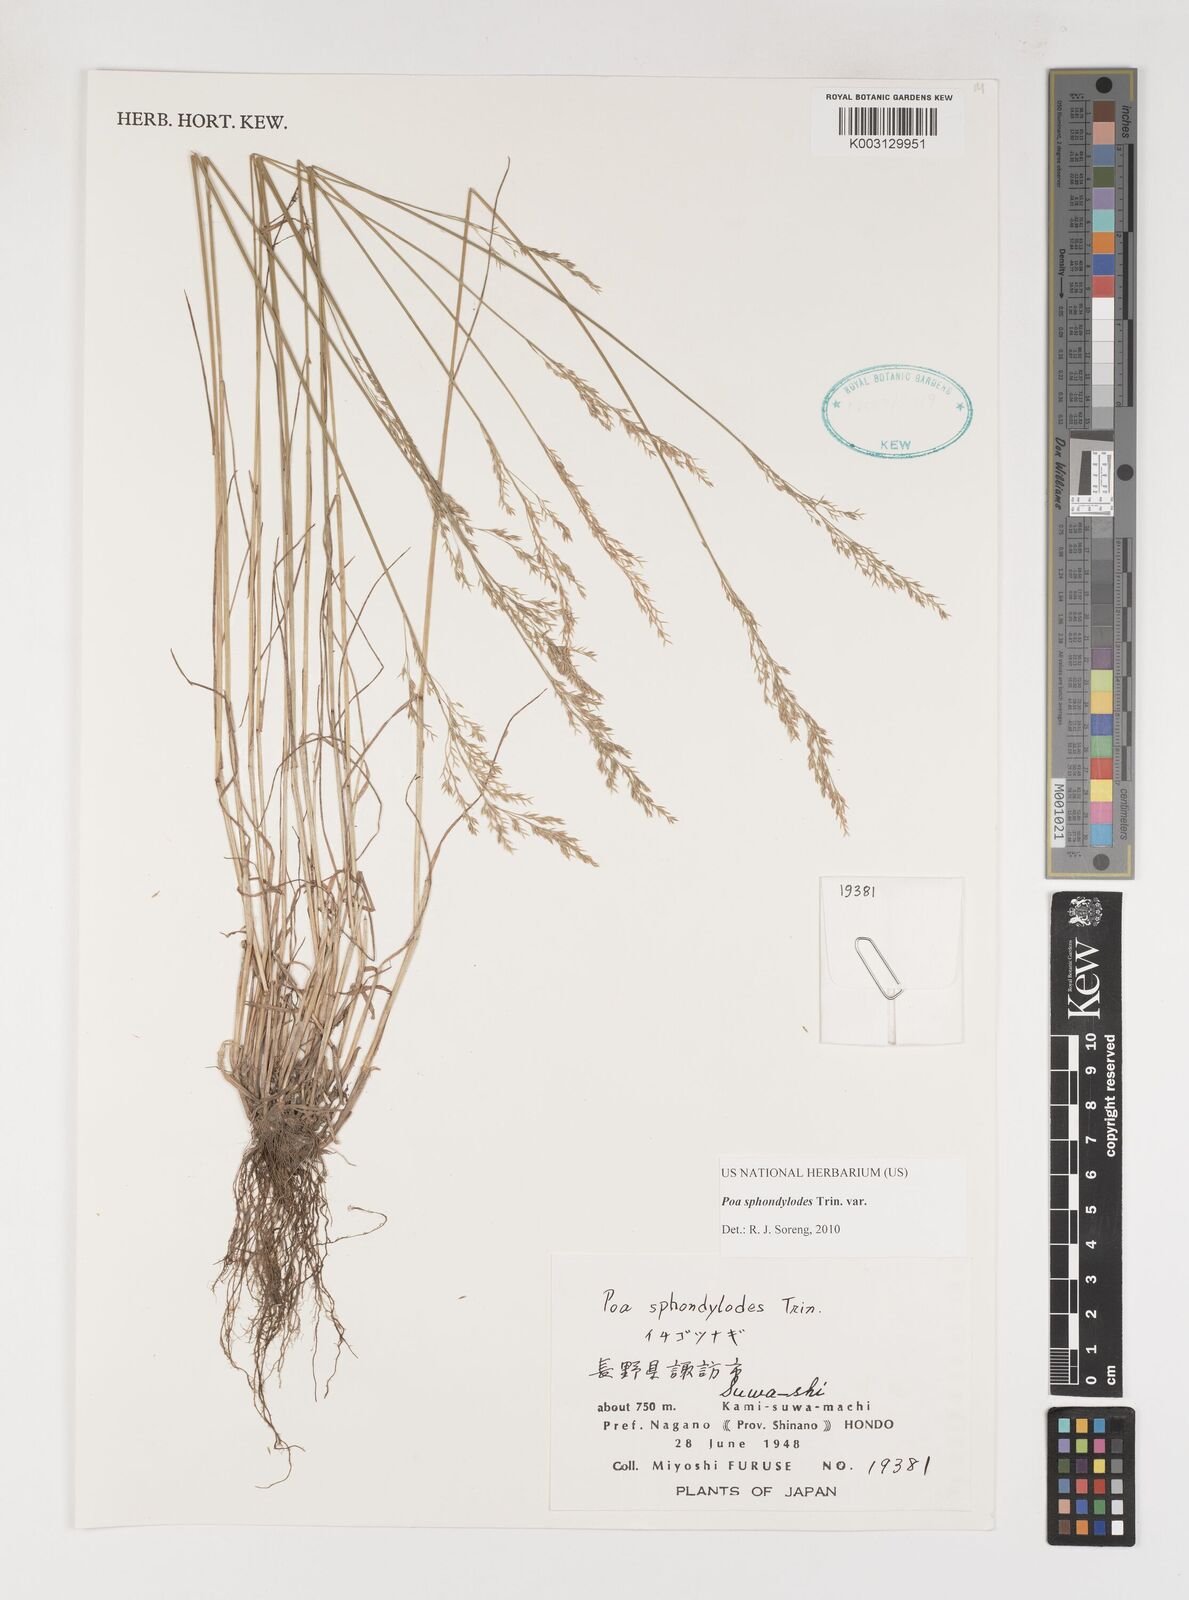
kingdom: Plantae
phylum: Tracheophyta
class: Liliopsida
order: Poales
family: Poaceae
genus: Poa
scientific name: Poa sphondylodes
